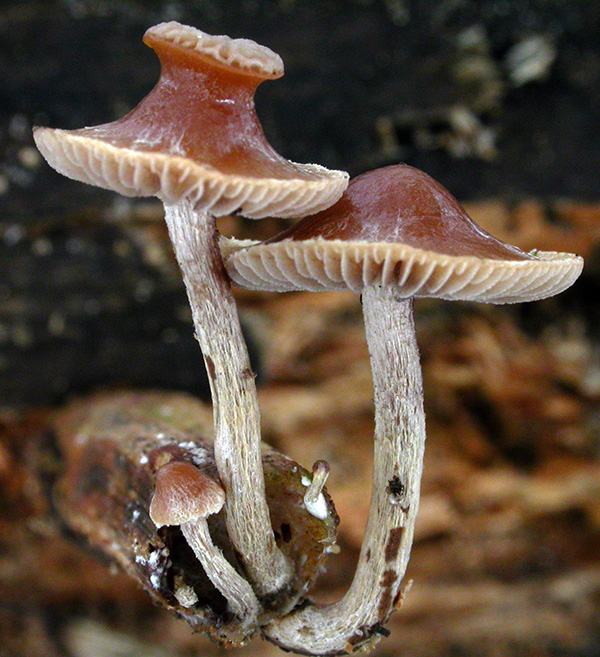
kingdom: Fungi
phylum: Basidiomycota
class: Agaricomycetes
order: Agaricales
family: Strophariaceae
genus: Deconica
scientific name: Deconica inquilina
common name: græs-stråhat
